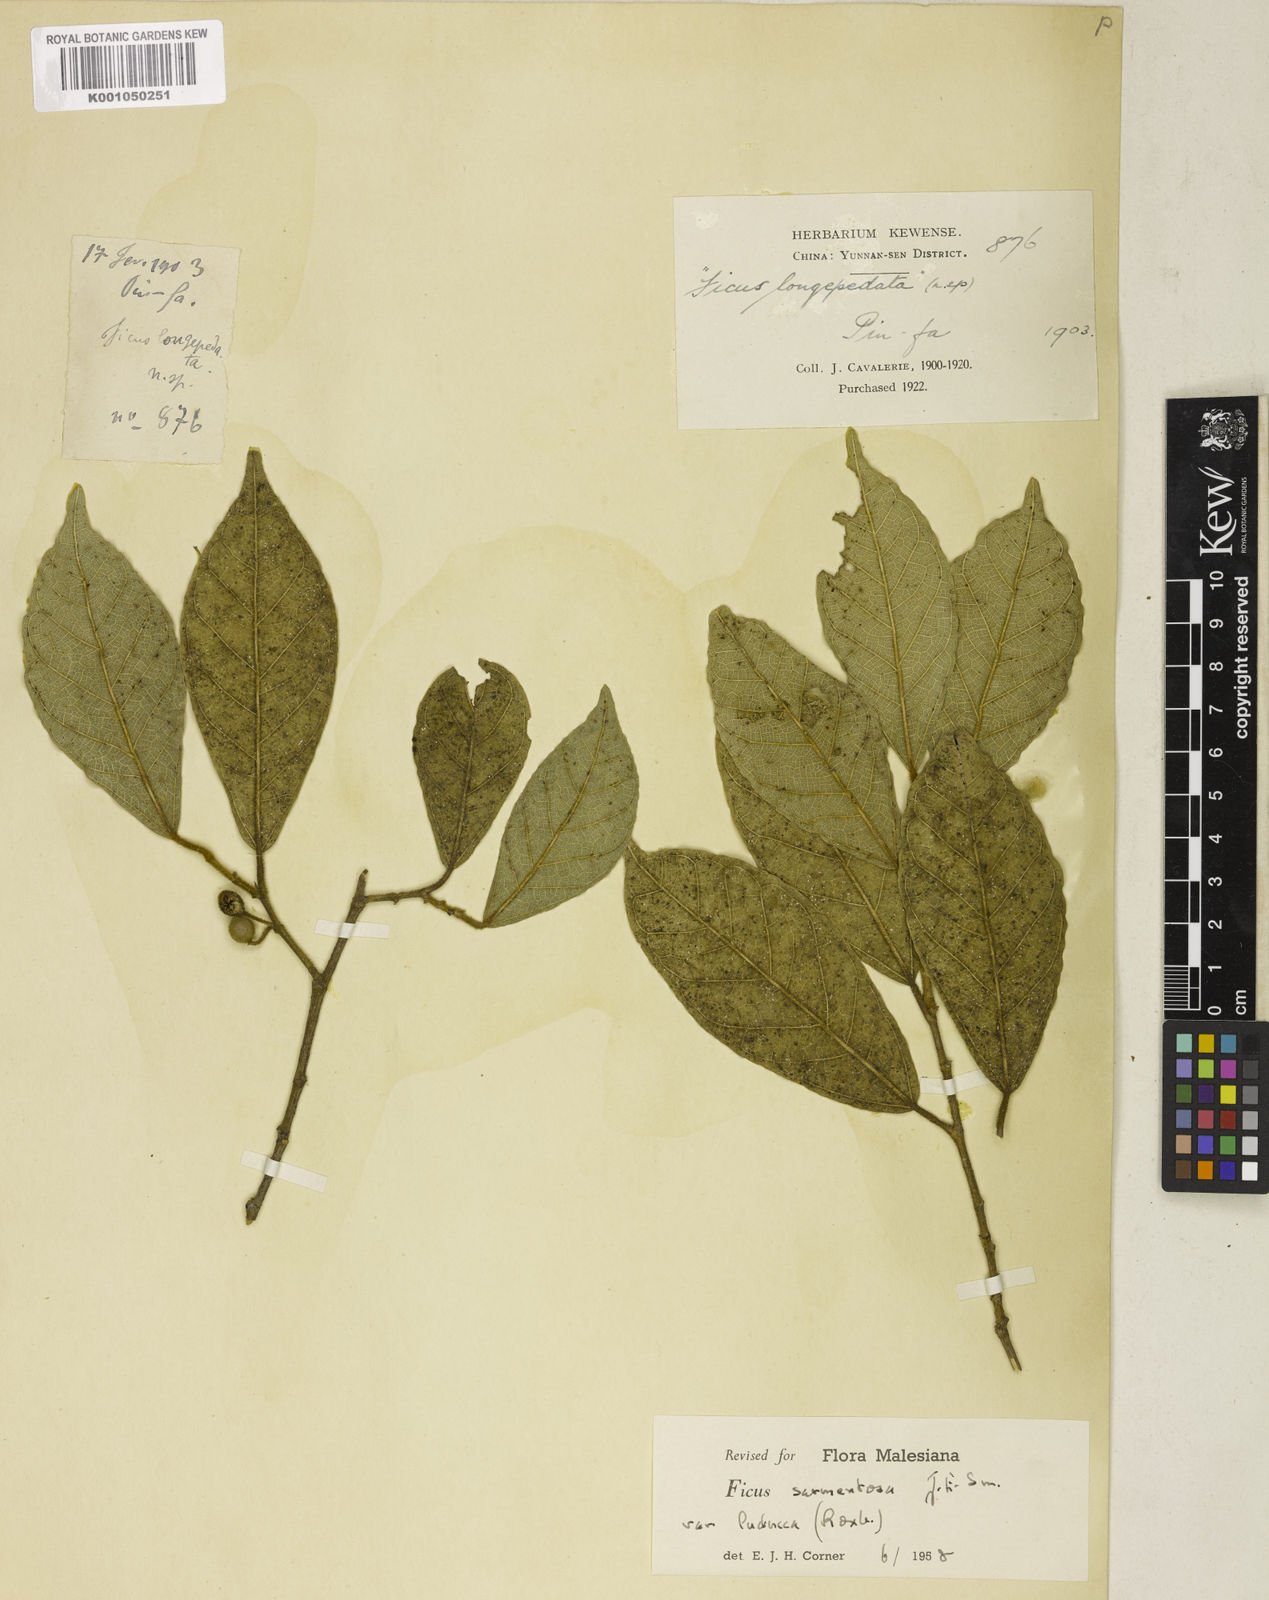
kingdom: Plantae
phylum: Tracheophyta
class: Magnoliopsida
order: Rosales
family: Moraceae
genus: Ficus
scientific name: Ficus sarmentosa
